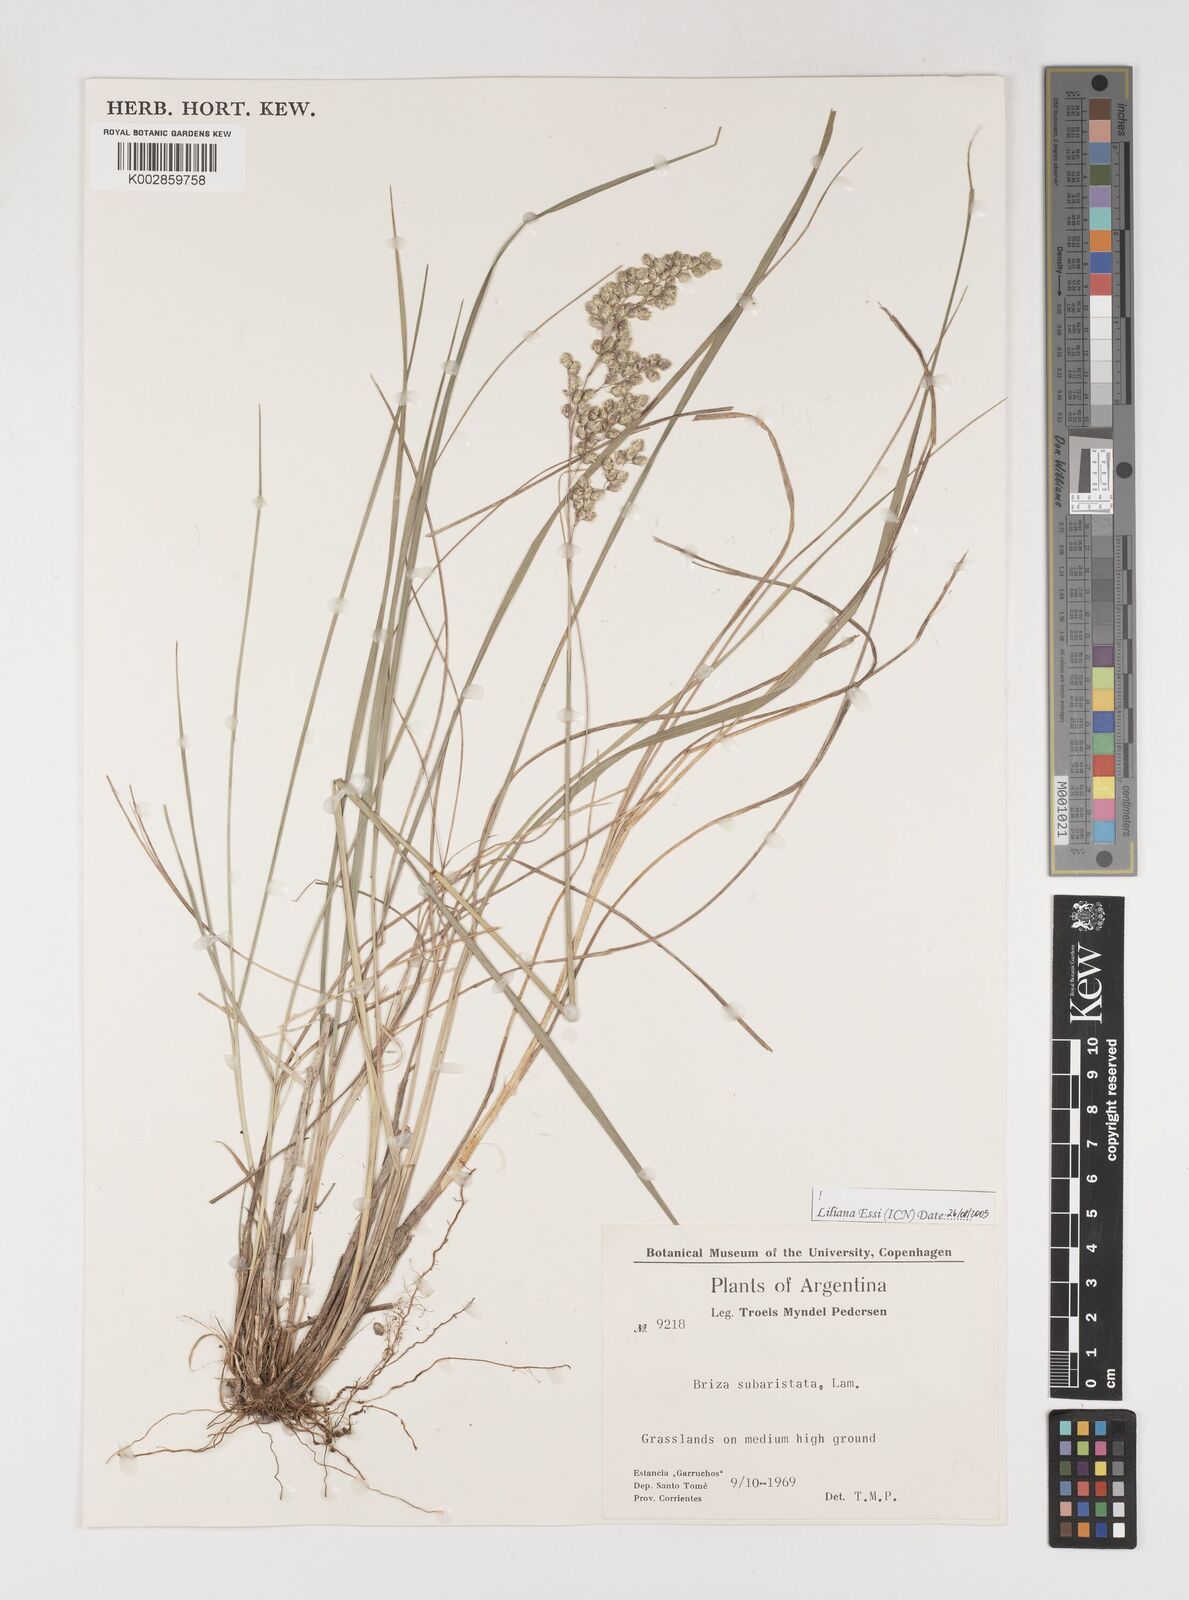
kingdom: Plantae
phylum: Tracheophyta
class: Liliopsida
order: Poales
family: Poaceae
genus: Chascolytrum
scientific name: Chascolytrum subaristatum
